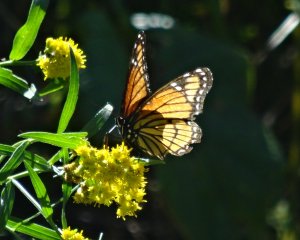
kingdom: Animalia
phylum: Arthropoda
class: Insecta
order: Lepidoptera
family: Nymphalidae
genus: Limenitis
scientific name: Limenitis archippus
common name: Viceroy
